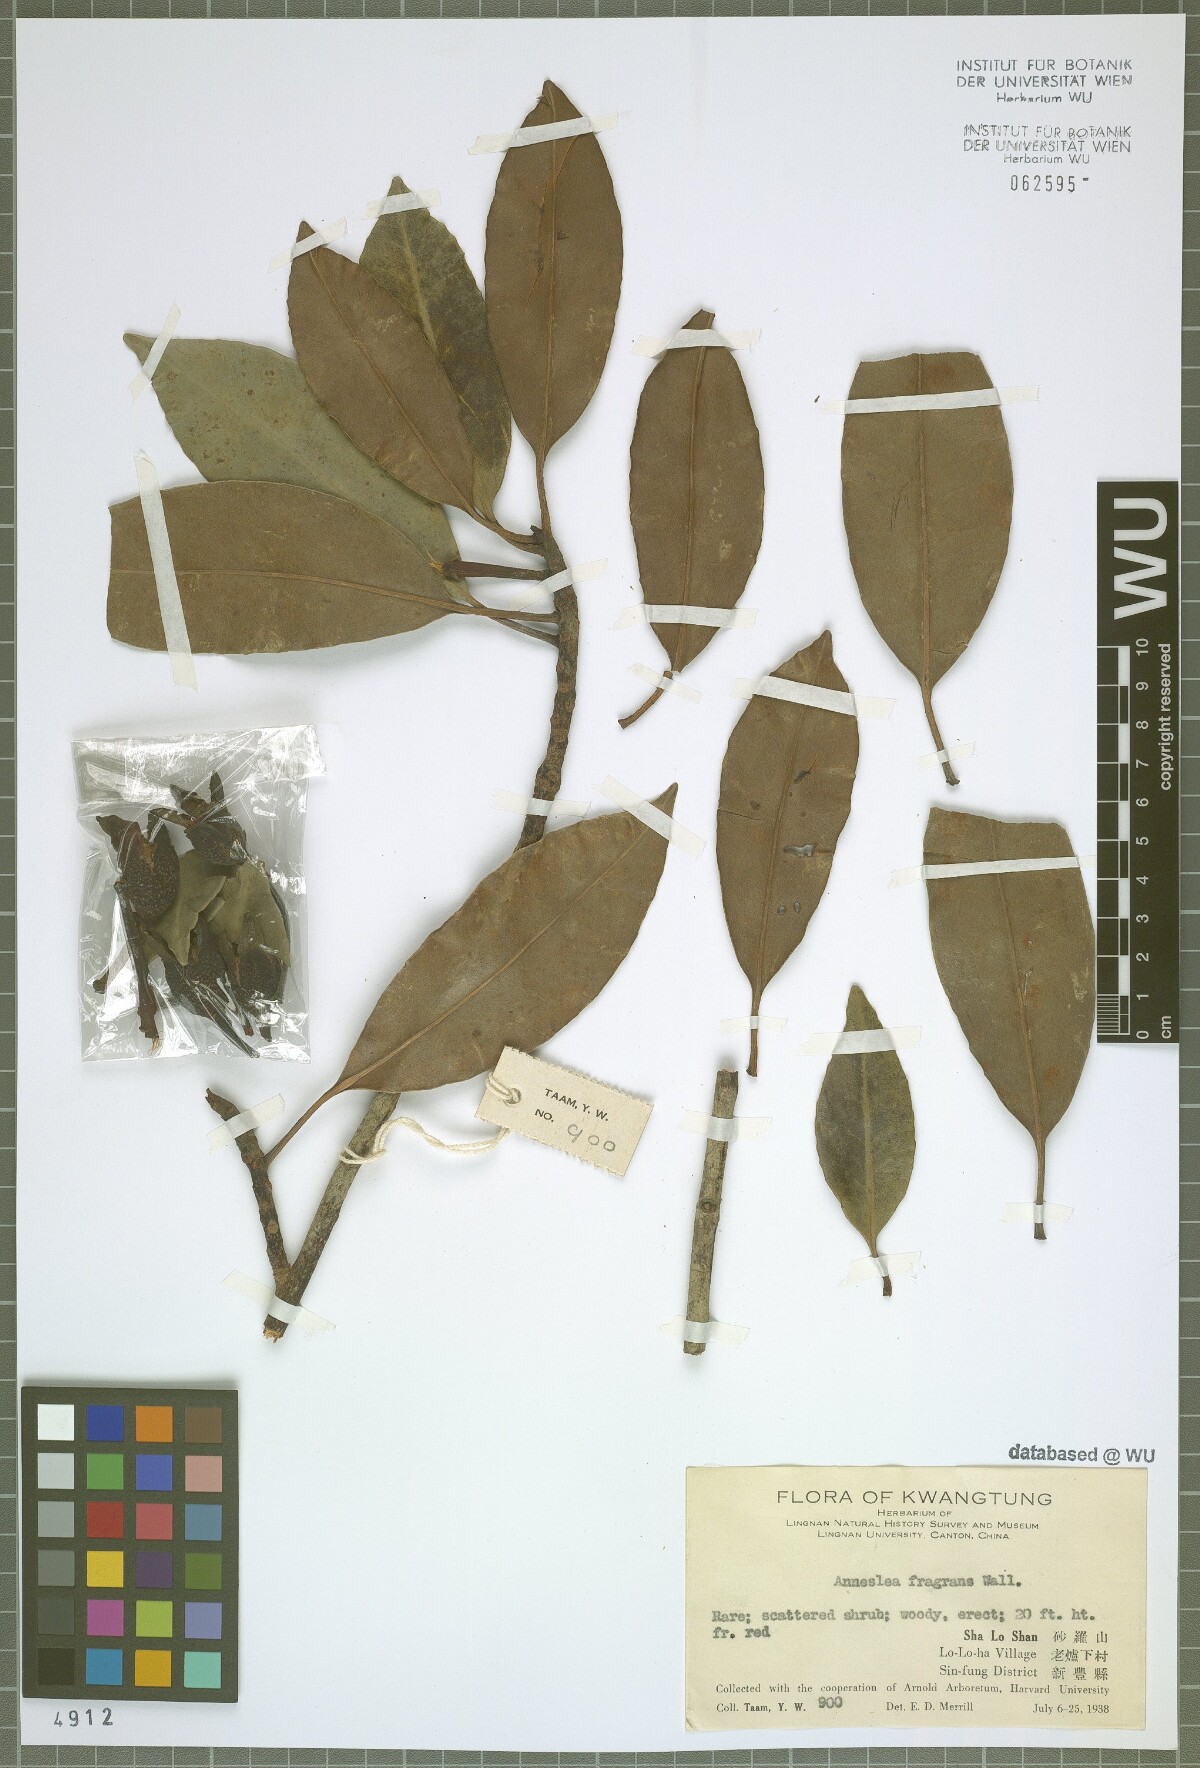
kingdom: Plantae
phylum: Tracheophyta
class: Magnoliopsida
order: Ericales
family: Pentaphylacaceae
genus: Anneslea
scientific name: Anneslea fragrans
